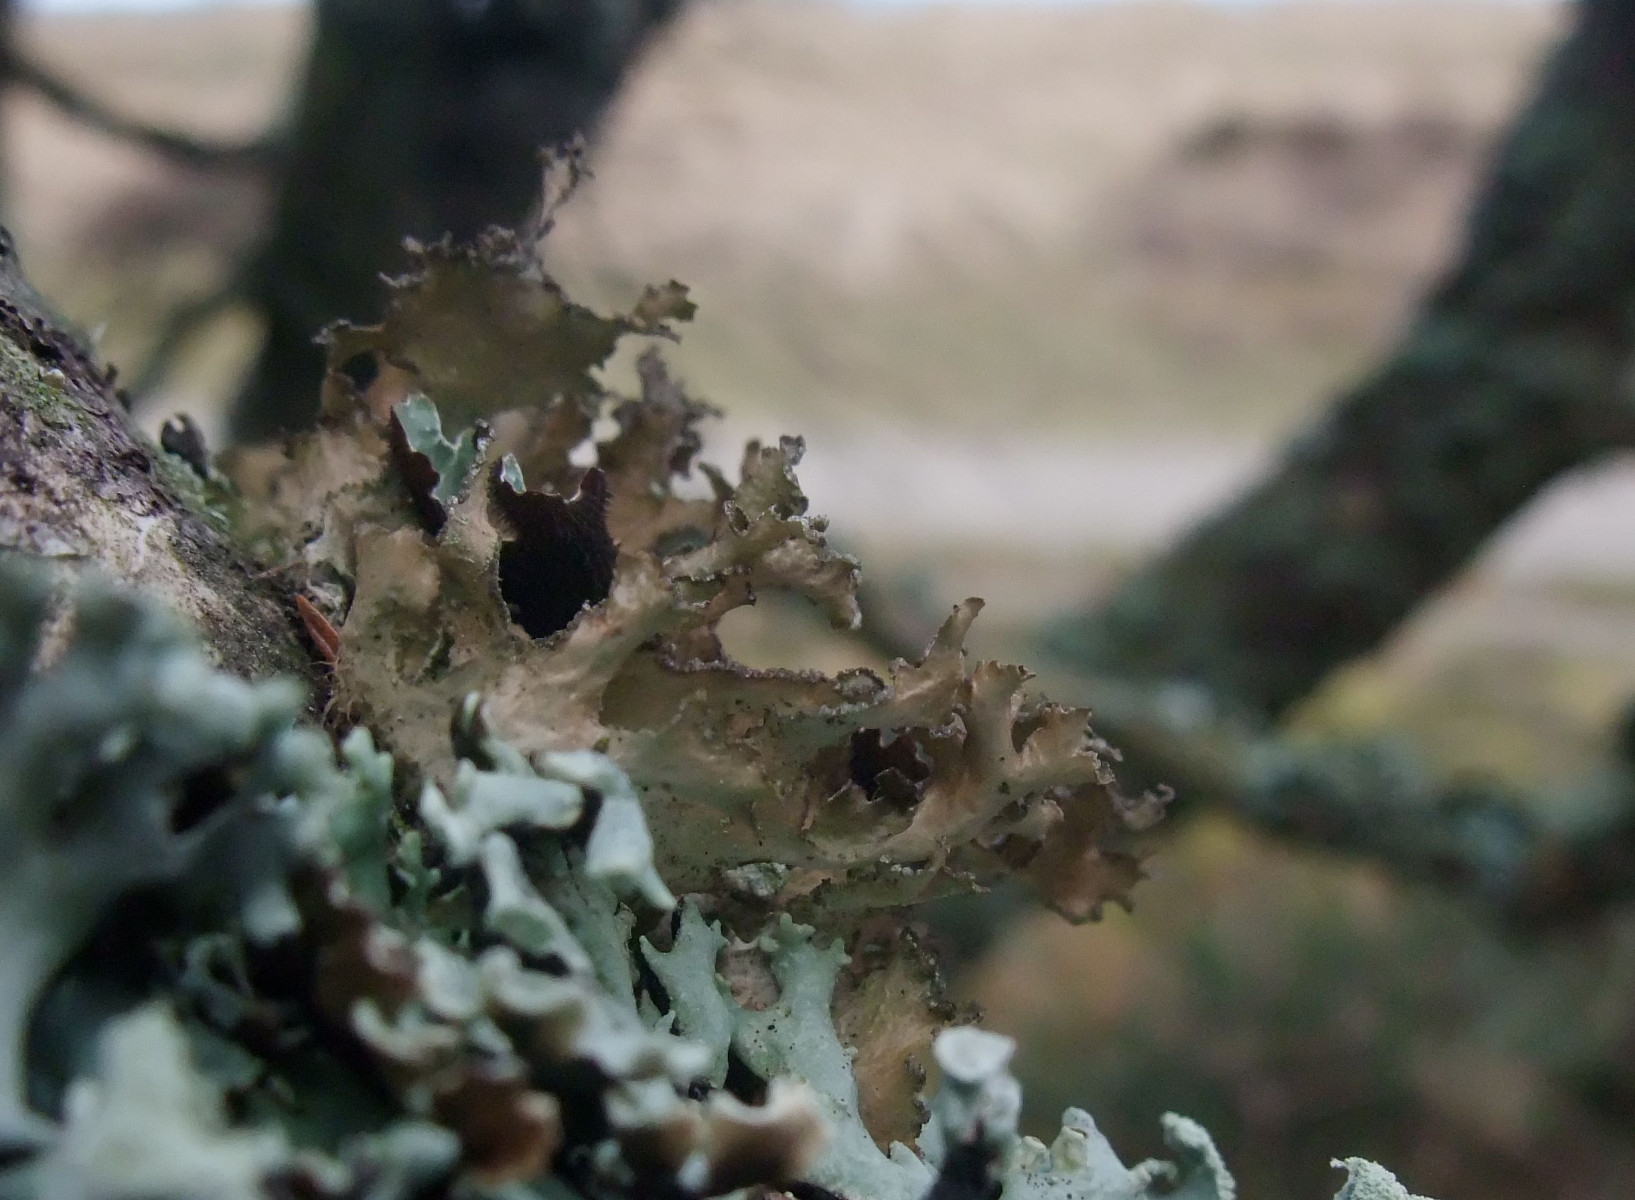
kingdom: Fungi
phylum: Ascomycota
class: Lecanoromycetes
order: Lecanorales
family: Parmeliaceae
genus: Nephromopsis
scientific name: Nephromopsis chlorophylla
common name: olivenbrun kruslav
